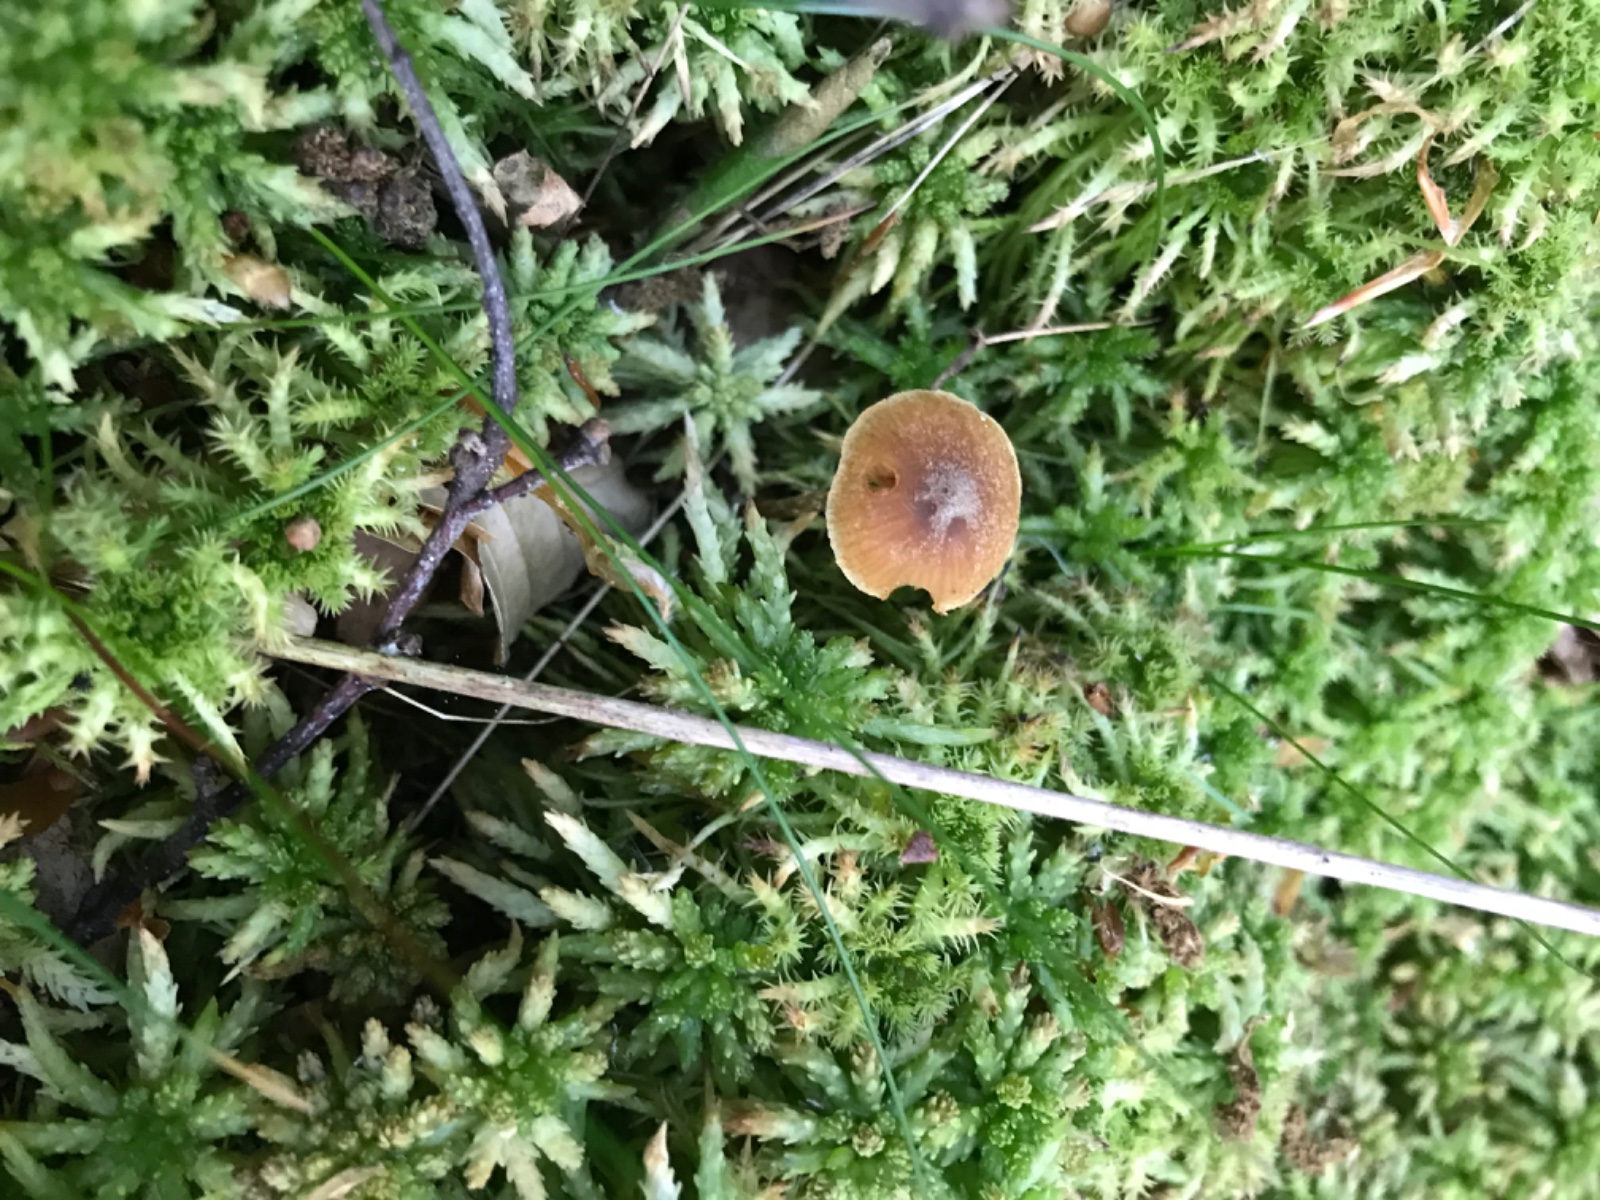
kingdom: Fungi
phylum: Basidiomycota
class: Agaricomycetes
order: Agaricales
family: Hymenogastraceae
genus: Galerina
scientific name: Galerina paludosa
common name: mose-hjelmhat
